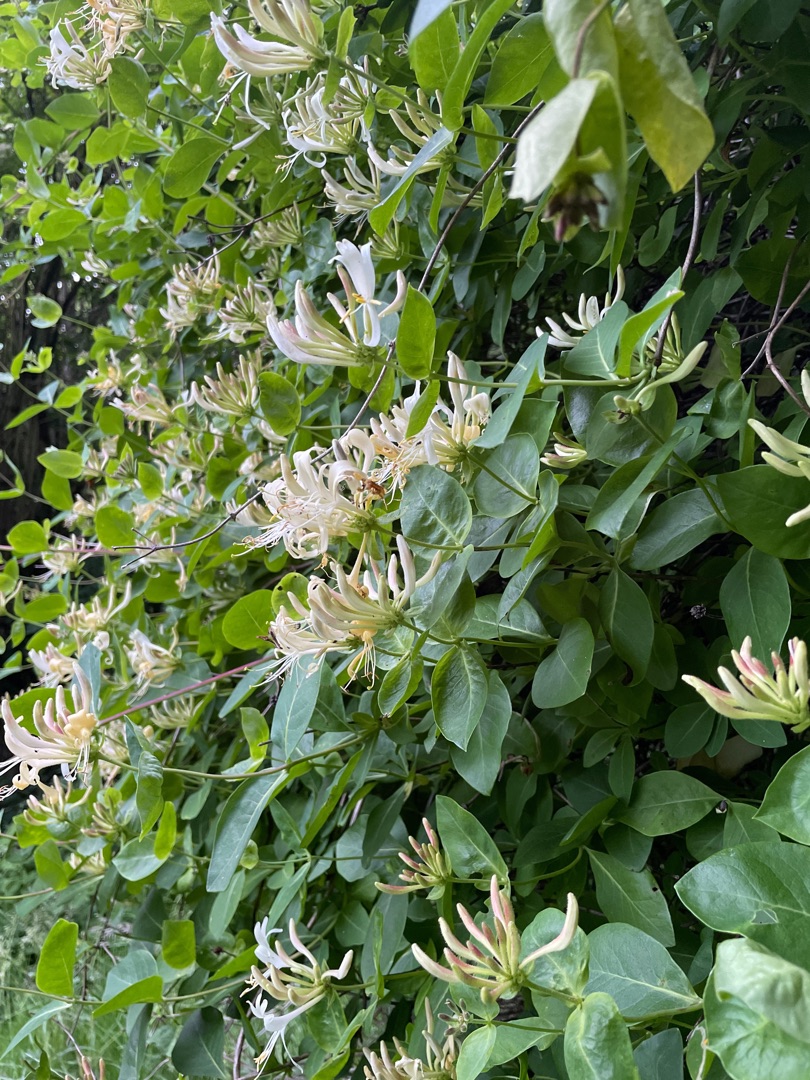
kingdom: Plantae
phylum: Tracheophyta
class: Magnoliopsida
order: Dipsacales
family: Caprifoliaceae
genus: Lonicera
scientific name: Lonicera periclymenum
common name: Almindelig gedeblad
